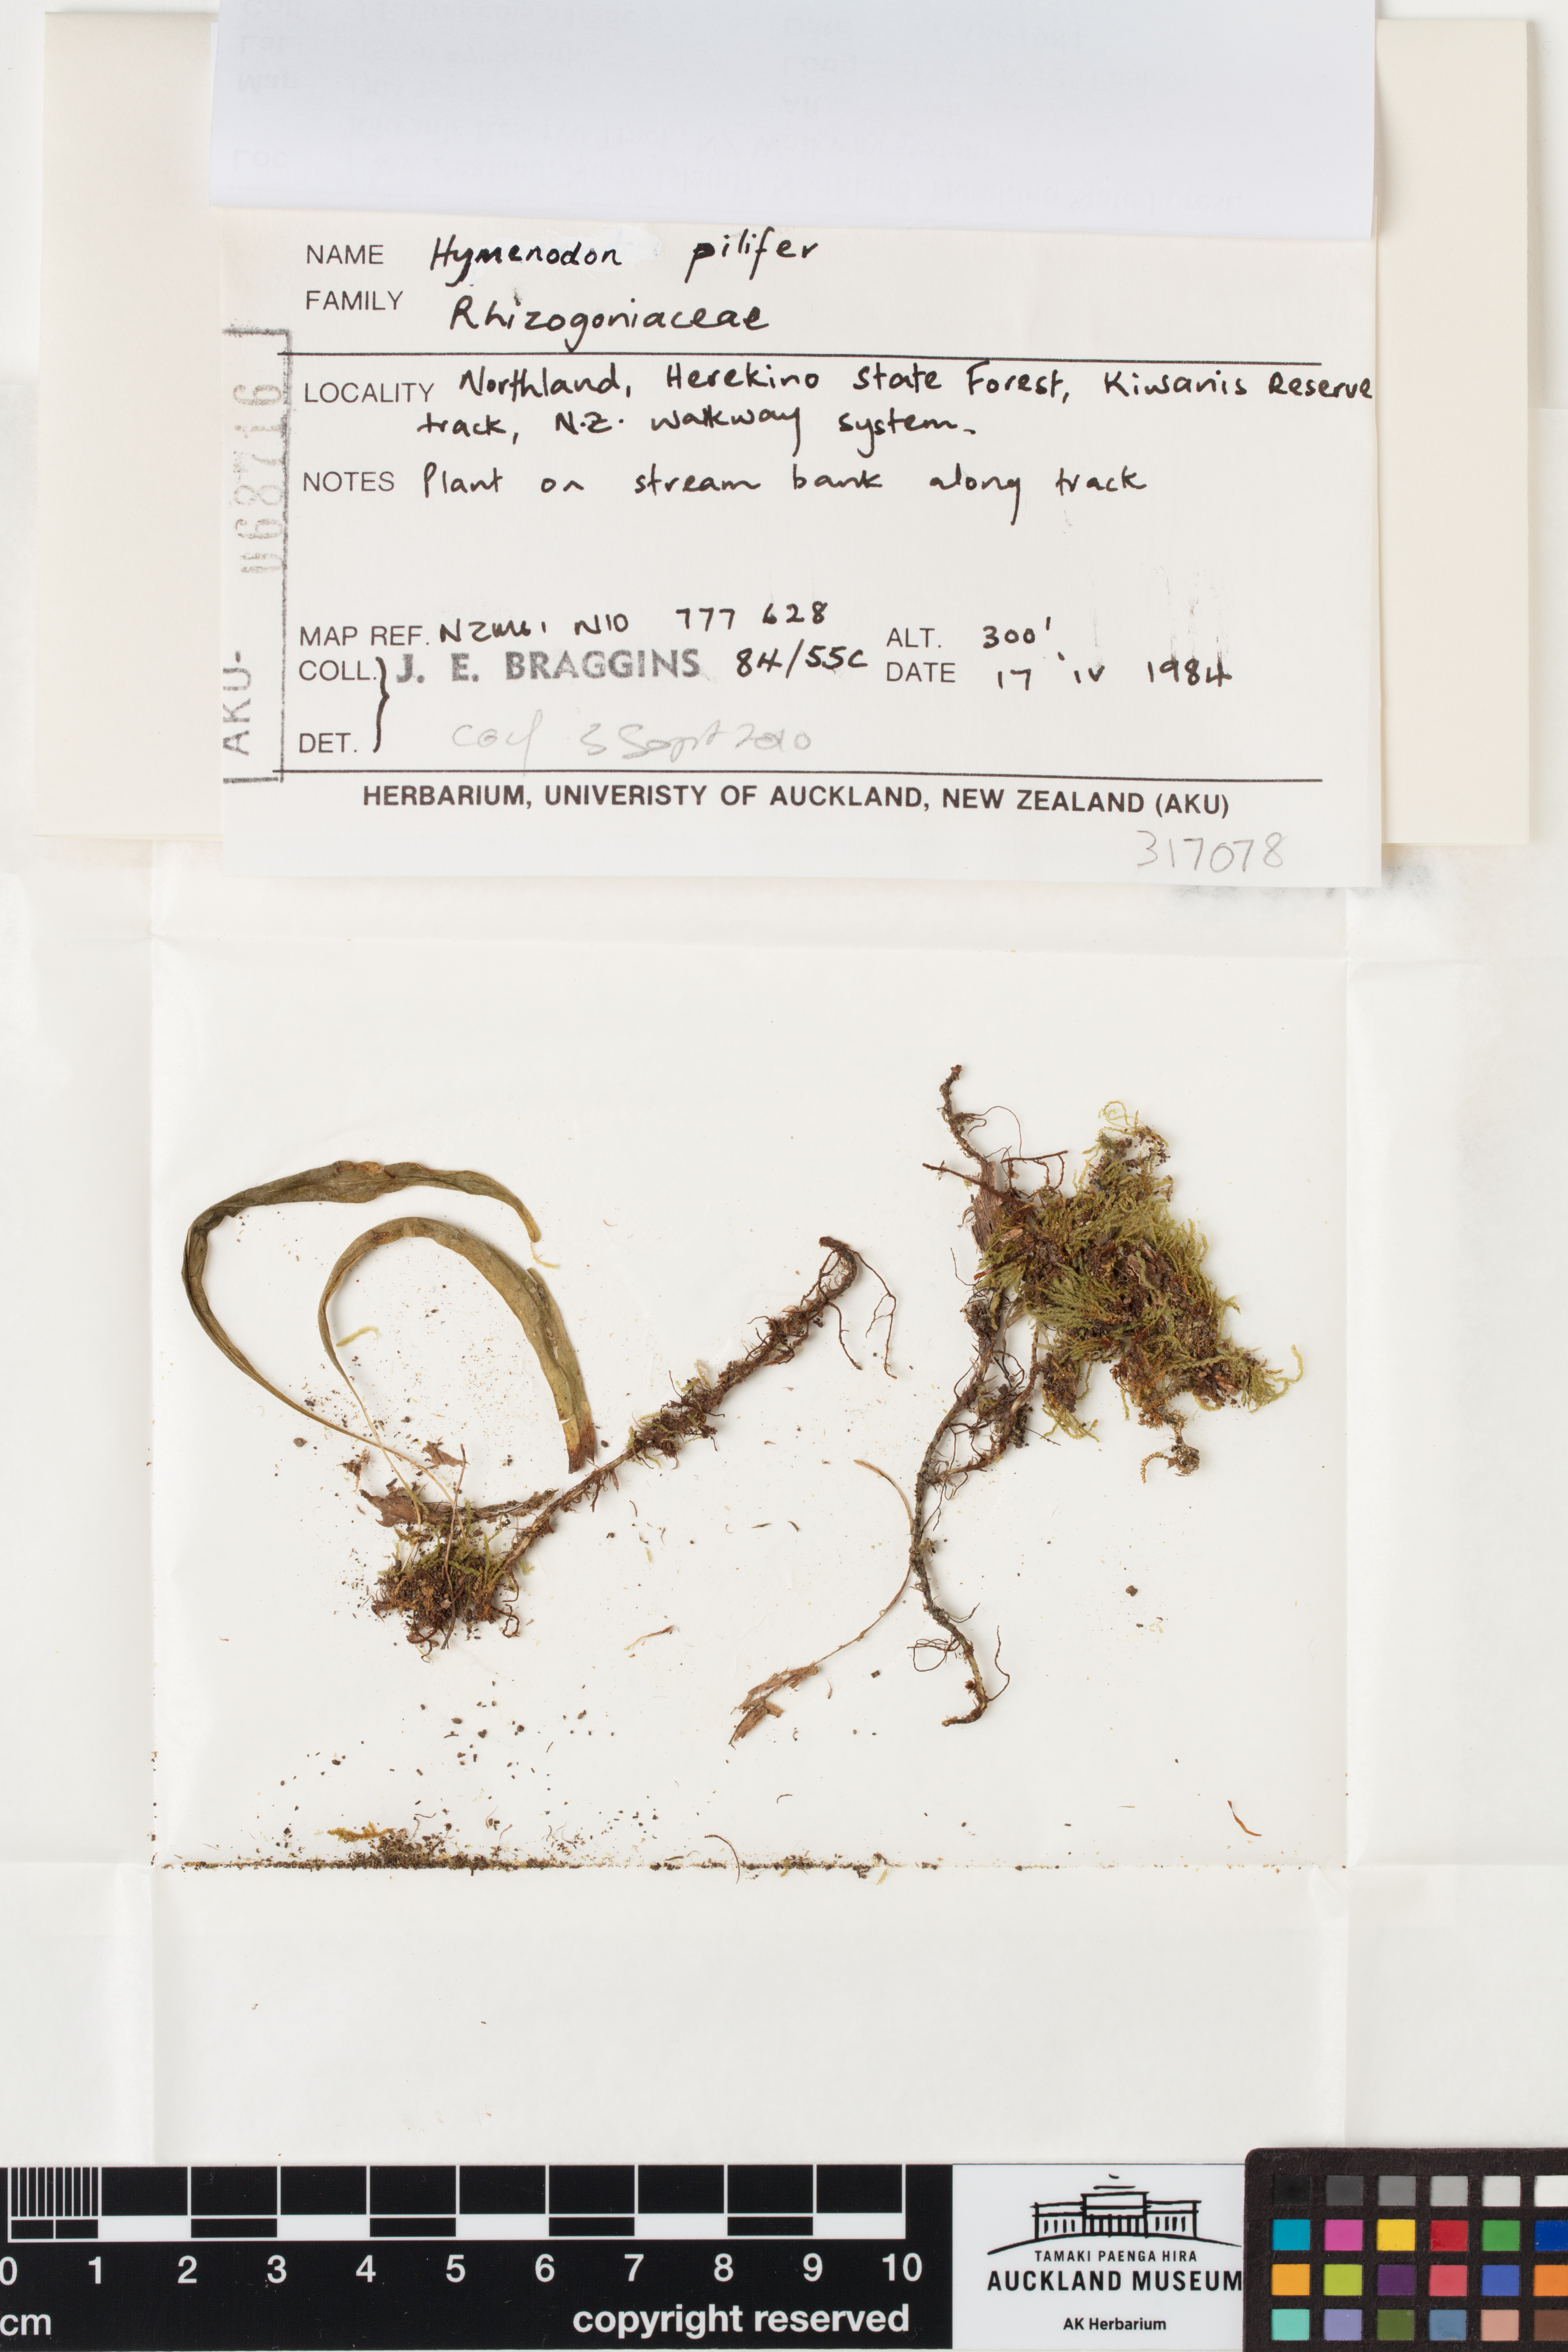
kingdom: Plantae
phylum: Bryophyta
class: Bryopsida
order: Orthodontiales
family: Orthodontiaceae
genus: Hymenodon
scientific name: Hymenodon pilifer
